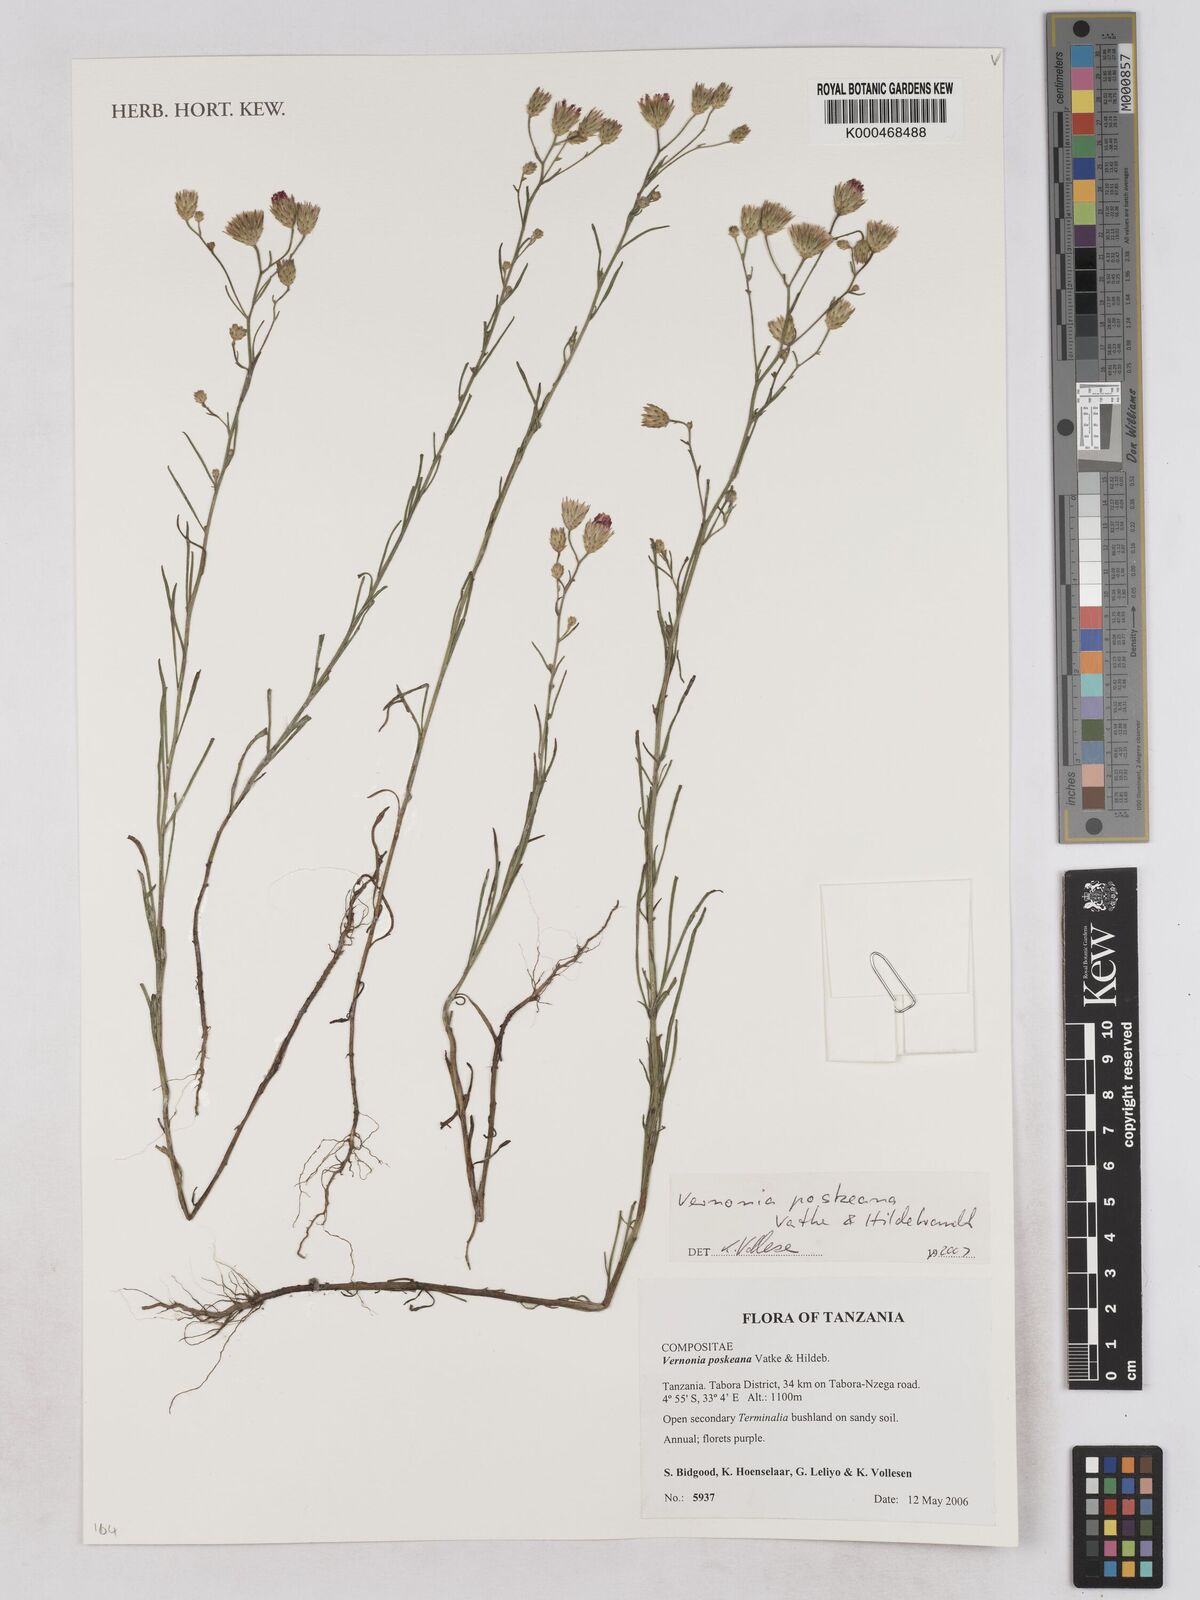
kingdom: Plantae
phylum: Tracheophyta
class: Magnoliopsida
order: Asterales
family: Asteraceae
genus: Crystallopollen
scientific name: Crystallopollen angustifolium
